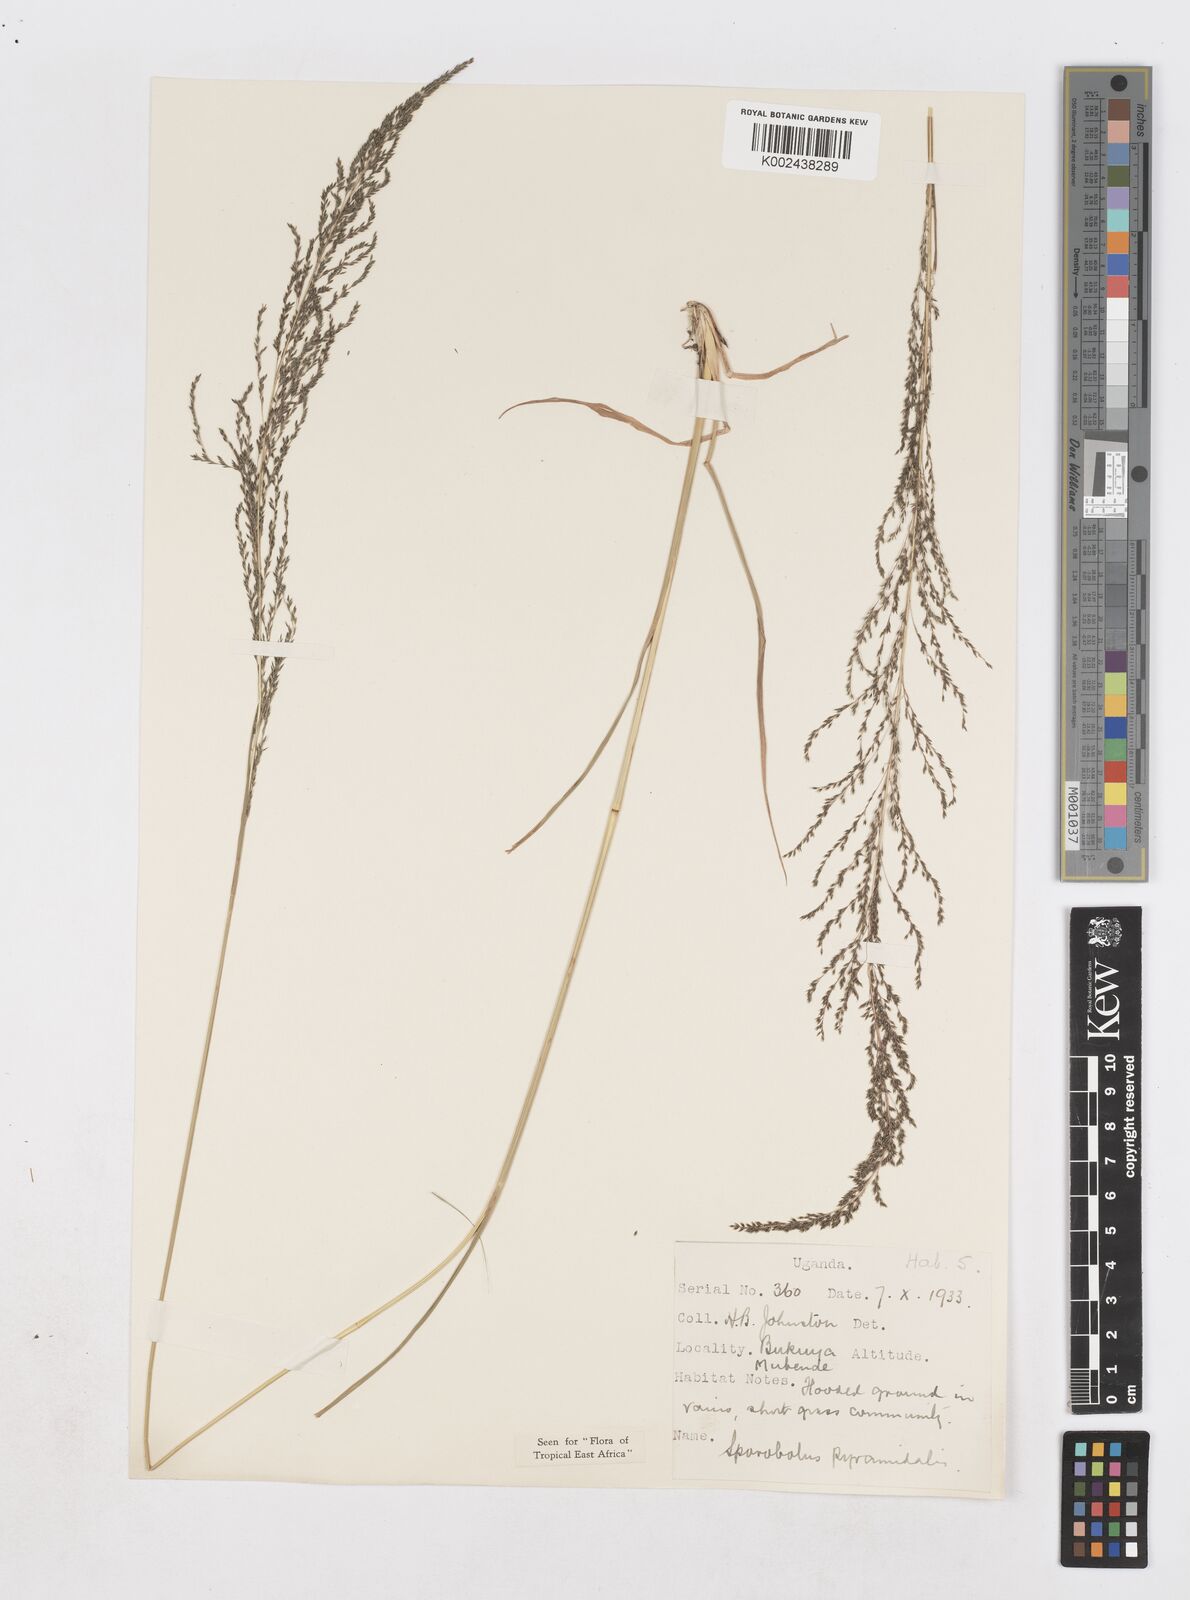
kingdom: Plantae
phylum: Tracheophyta
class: Liliopsida
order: Poales
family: Poaceae
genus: Sporobolus
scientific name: Sporobolus pyramidalis
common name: West indian dropseed
